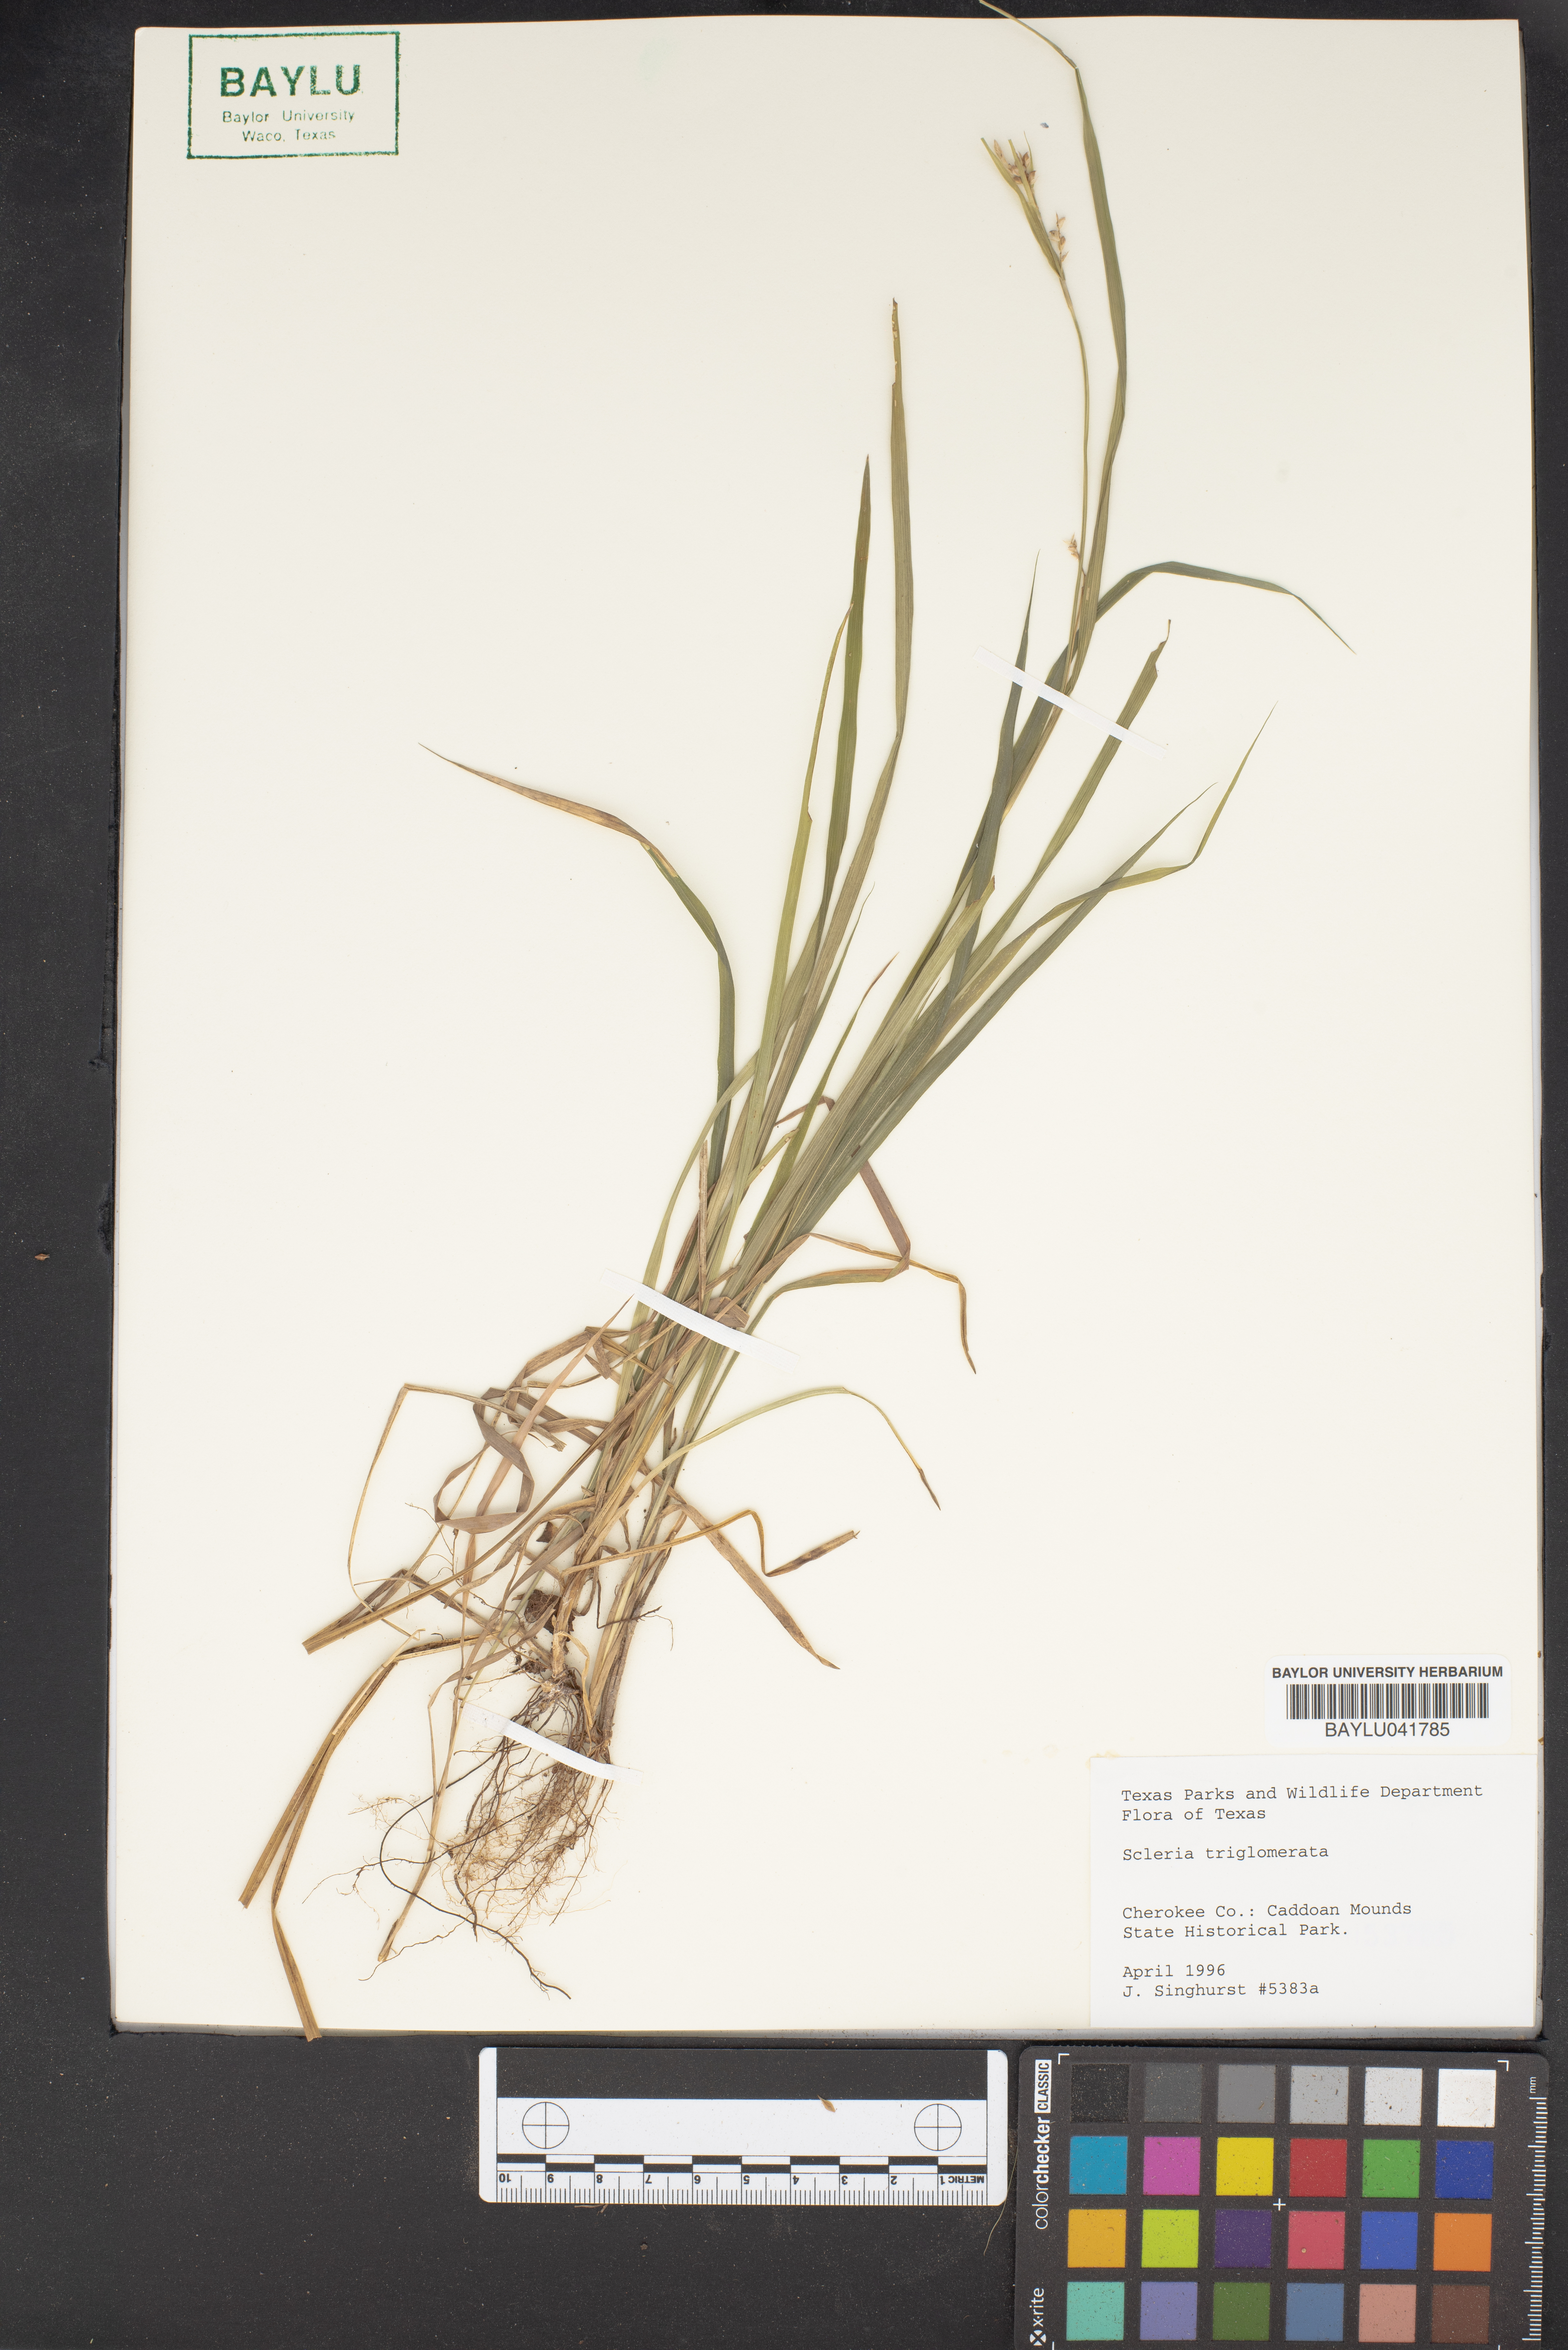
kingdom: Plantae
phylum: Tracheophyta
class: Liliopsida
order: Poales
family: Cyperaceae
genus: Scleria
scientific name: Scleria triglomerata
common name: Whip nutrush
